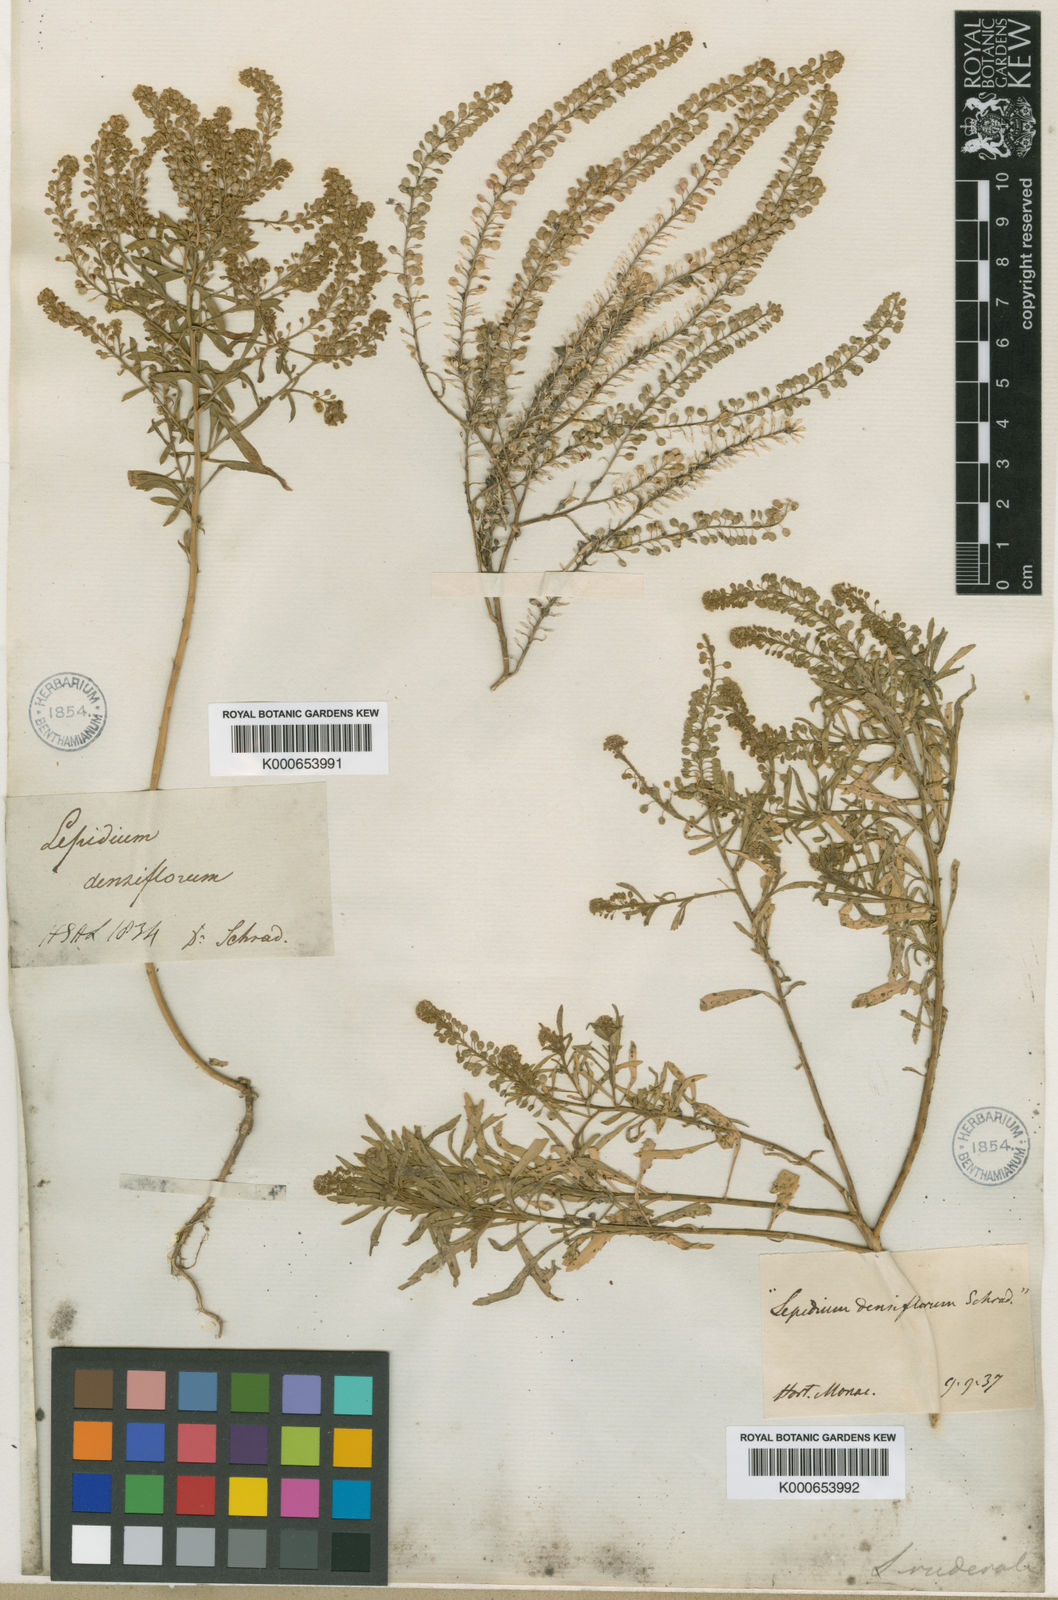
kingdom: Plantae
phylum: Tracheophyta
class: Magnoliopsida
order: Brassicales
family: Brassicaceae
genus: Lepidium
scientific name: Lepidium flexicaule
